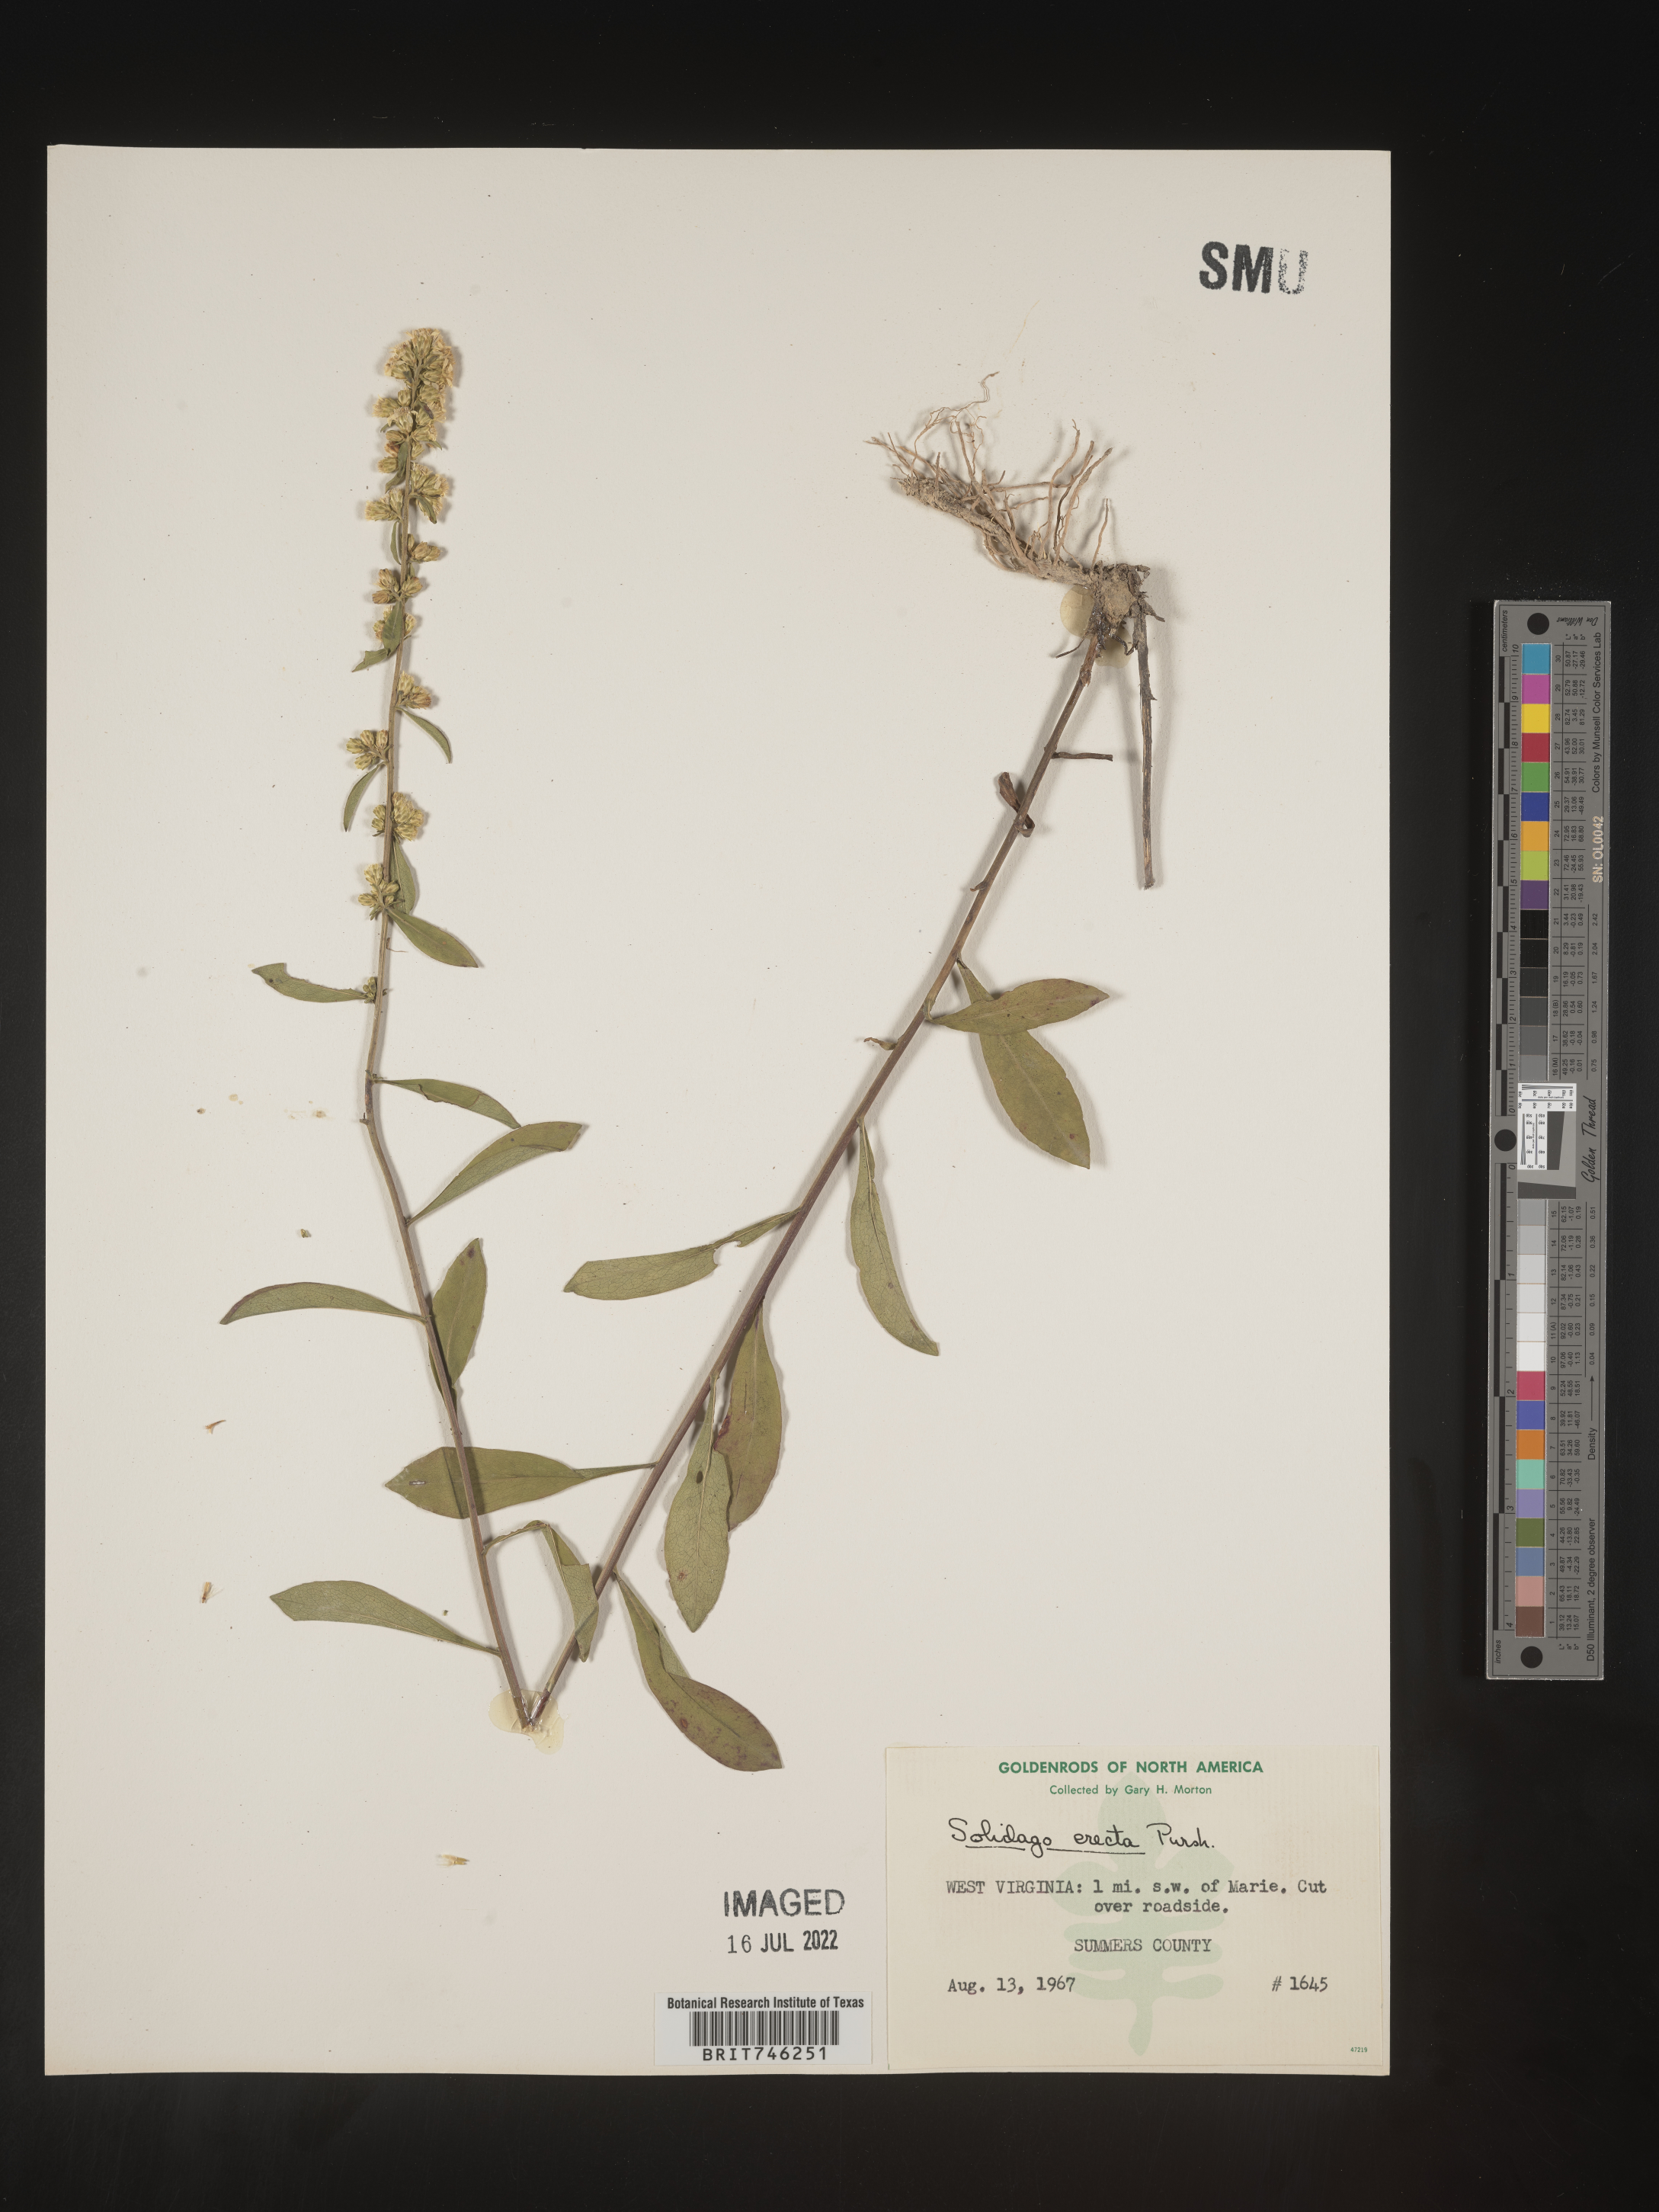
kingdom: Plantae
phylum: Tracheophyta
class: Magnoliopsida
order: Asterales
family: Asteraceae
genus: Solidago
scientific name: Solidago erecta
